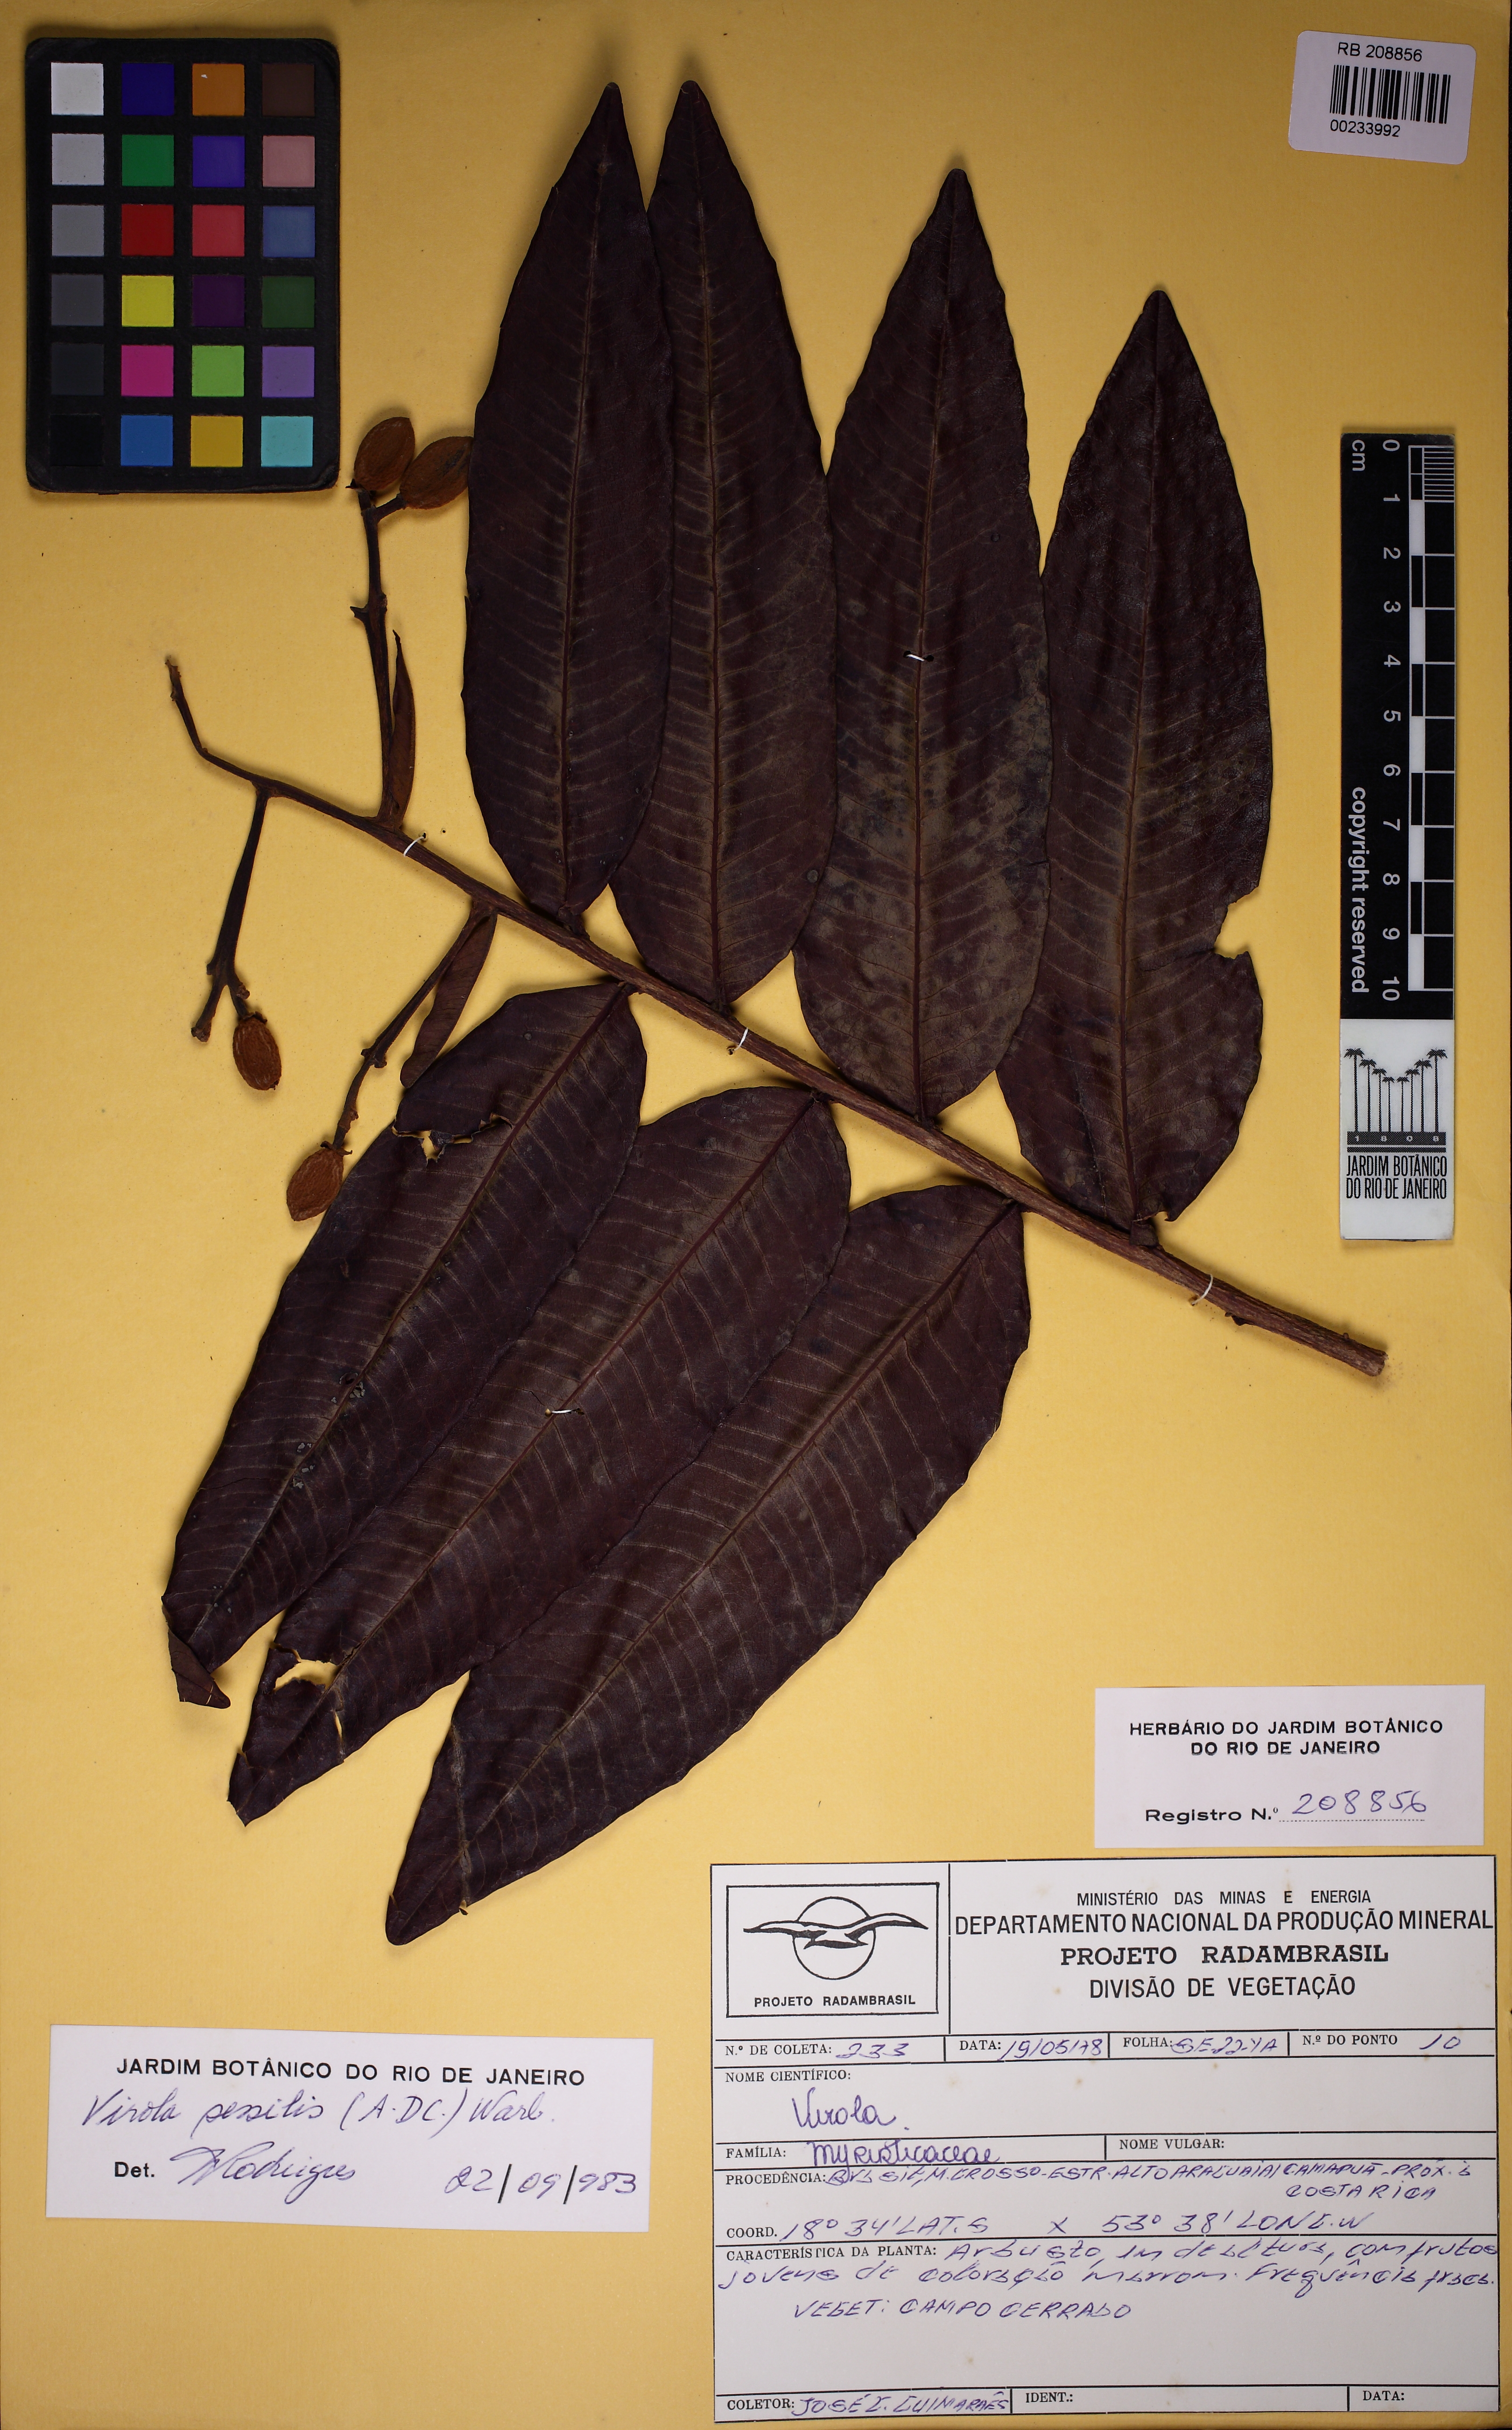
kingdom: Plantae
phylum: Tracheophyta
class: Magnoliopsida
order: Magnoliales
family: Myristicaceae
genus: Virola
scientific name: Virola sessilis
